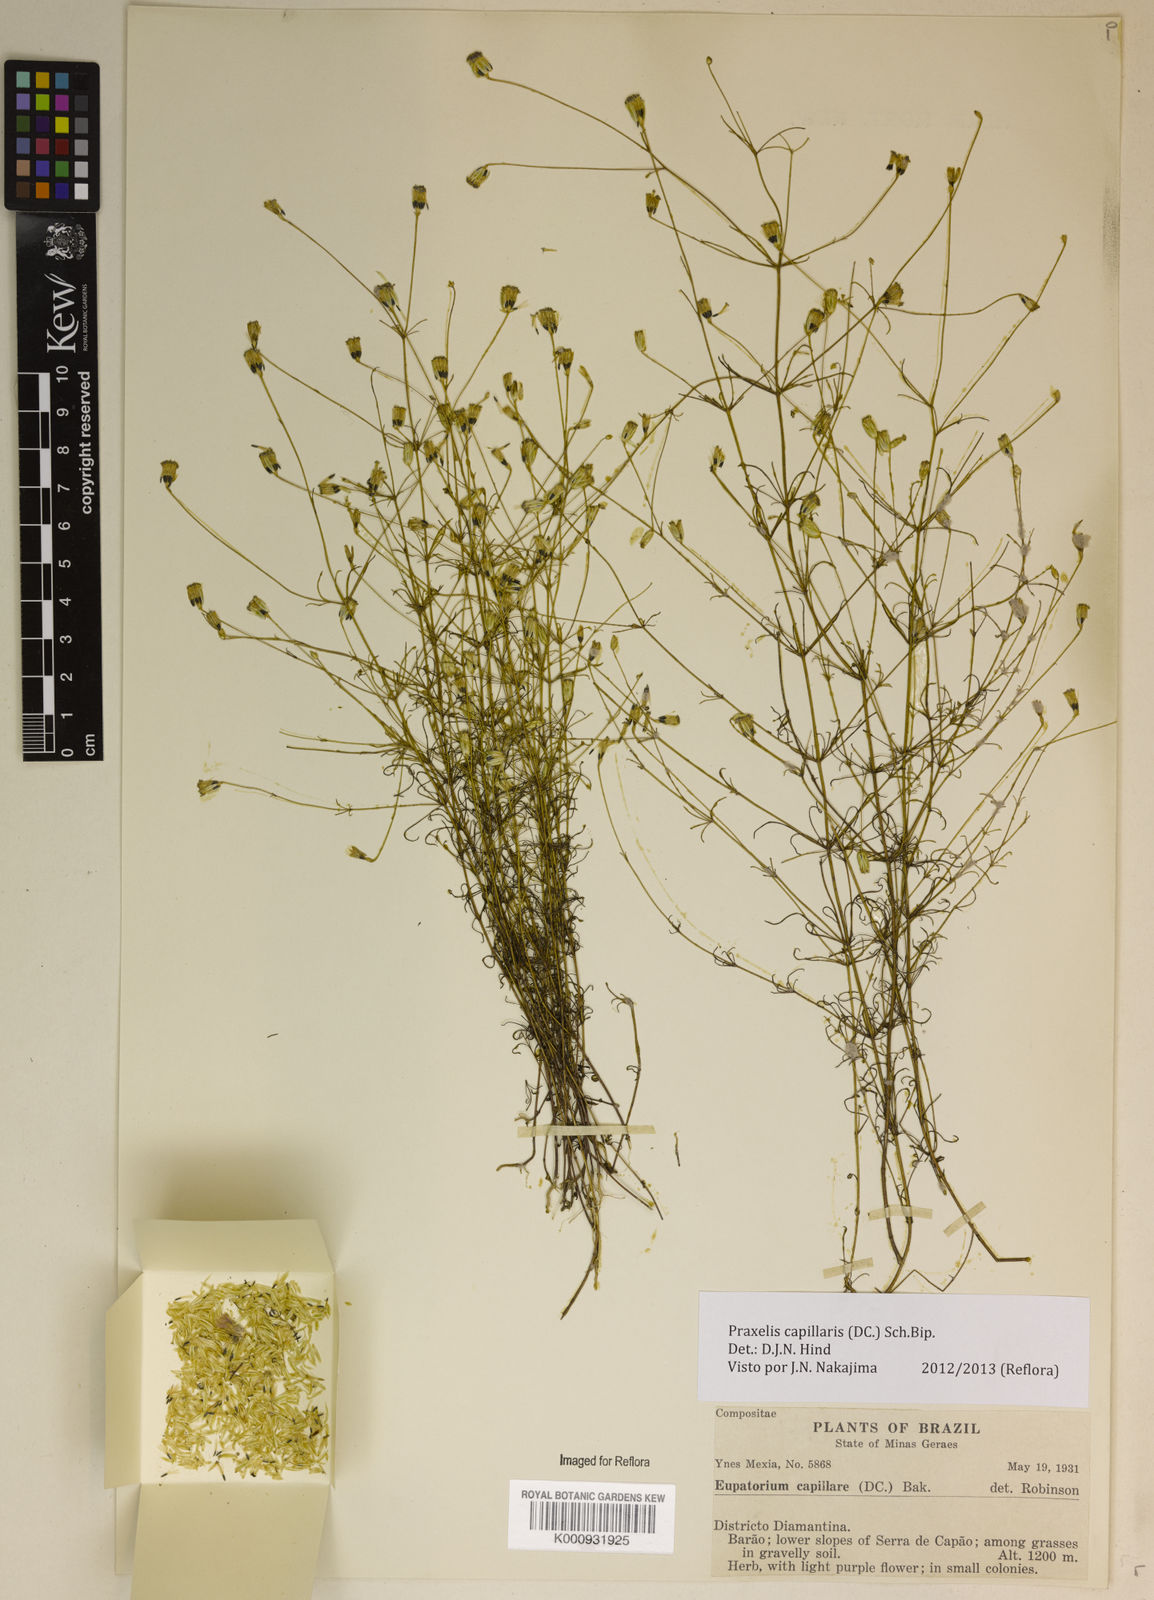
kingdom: Plantae
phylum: Tracheophyta
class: Magnoliopsida
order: Asterales
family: Asteraceae
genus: Praxelis
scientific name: Praxelis capillaris
